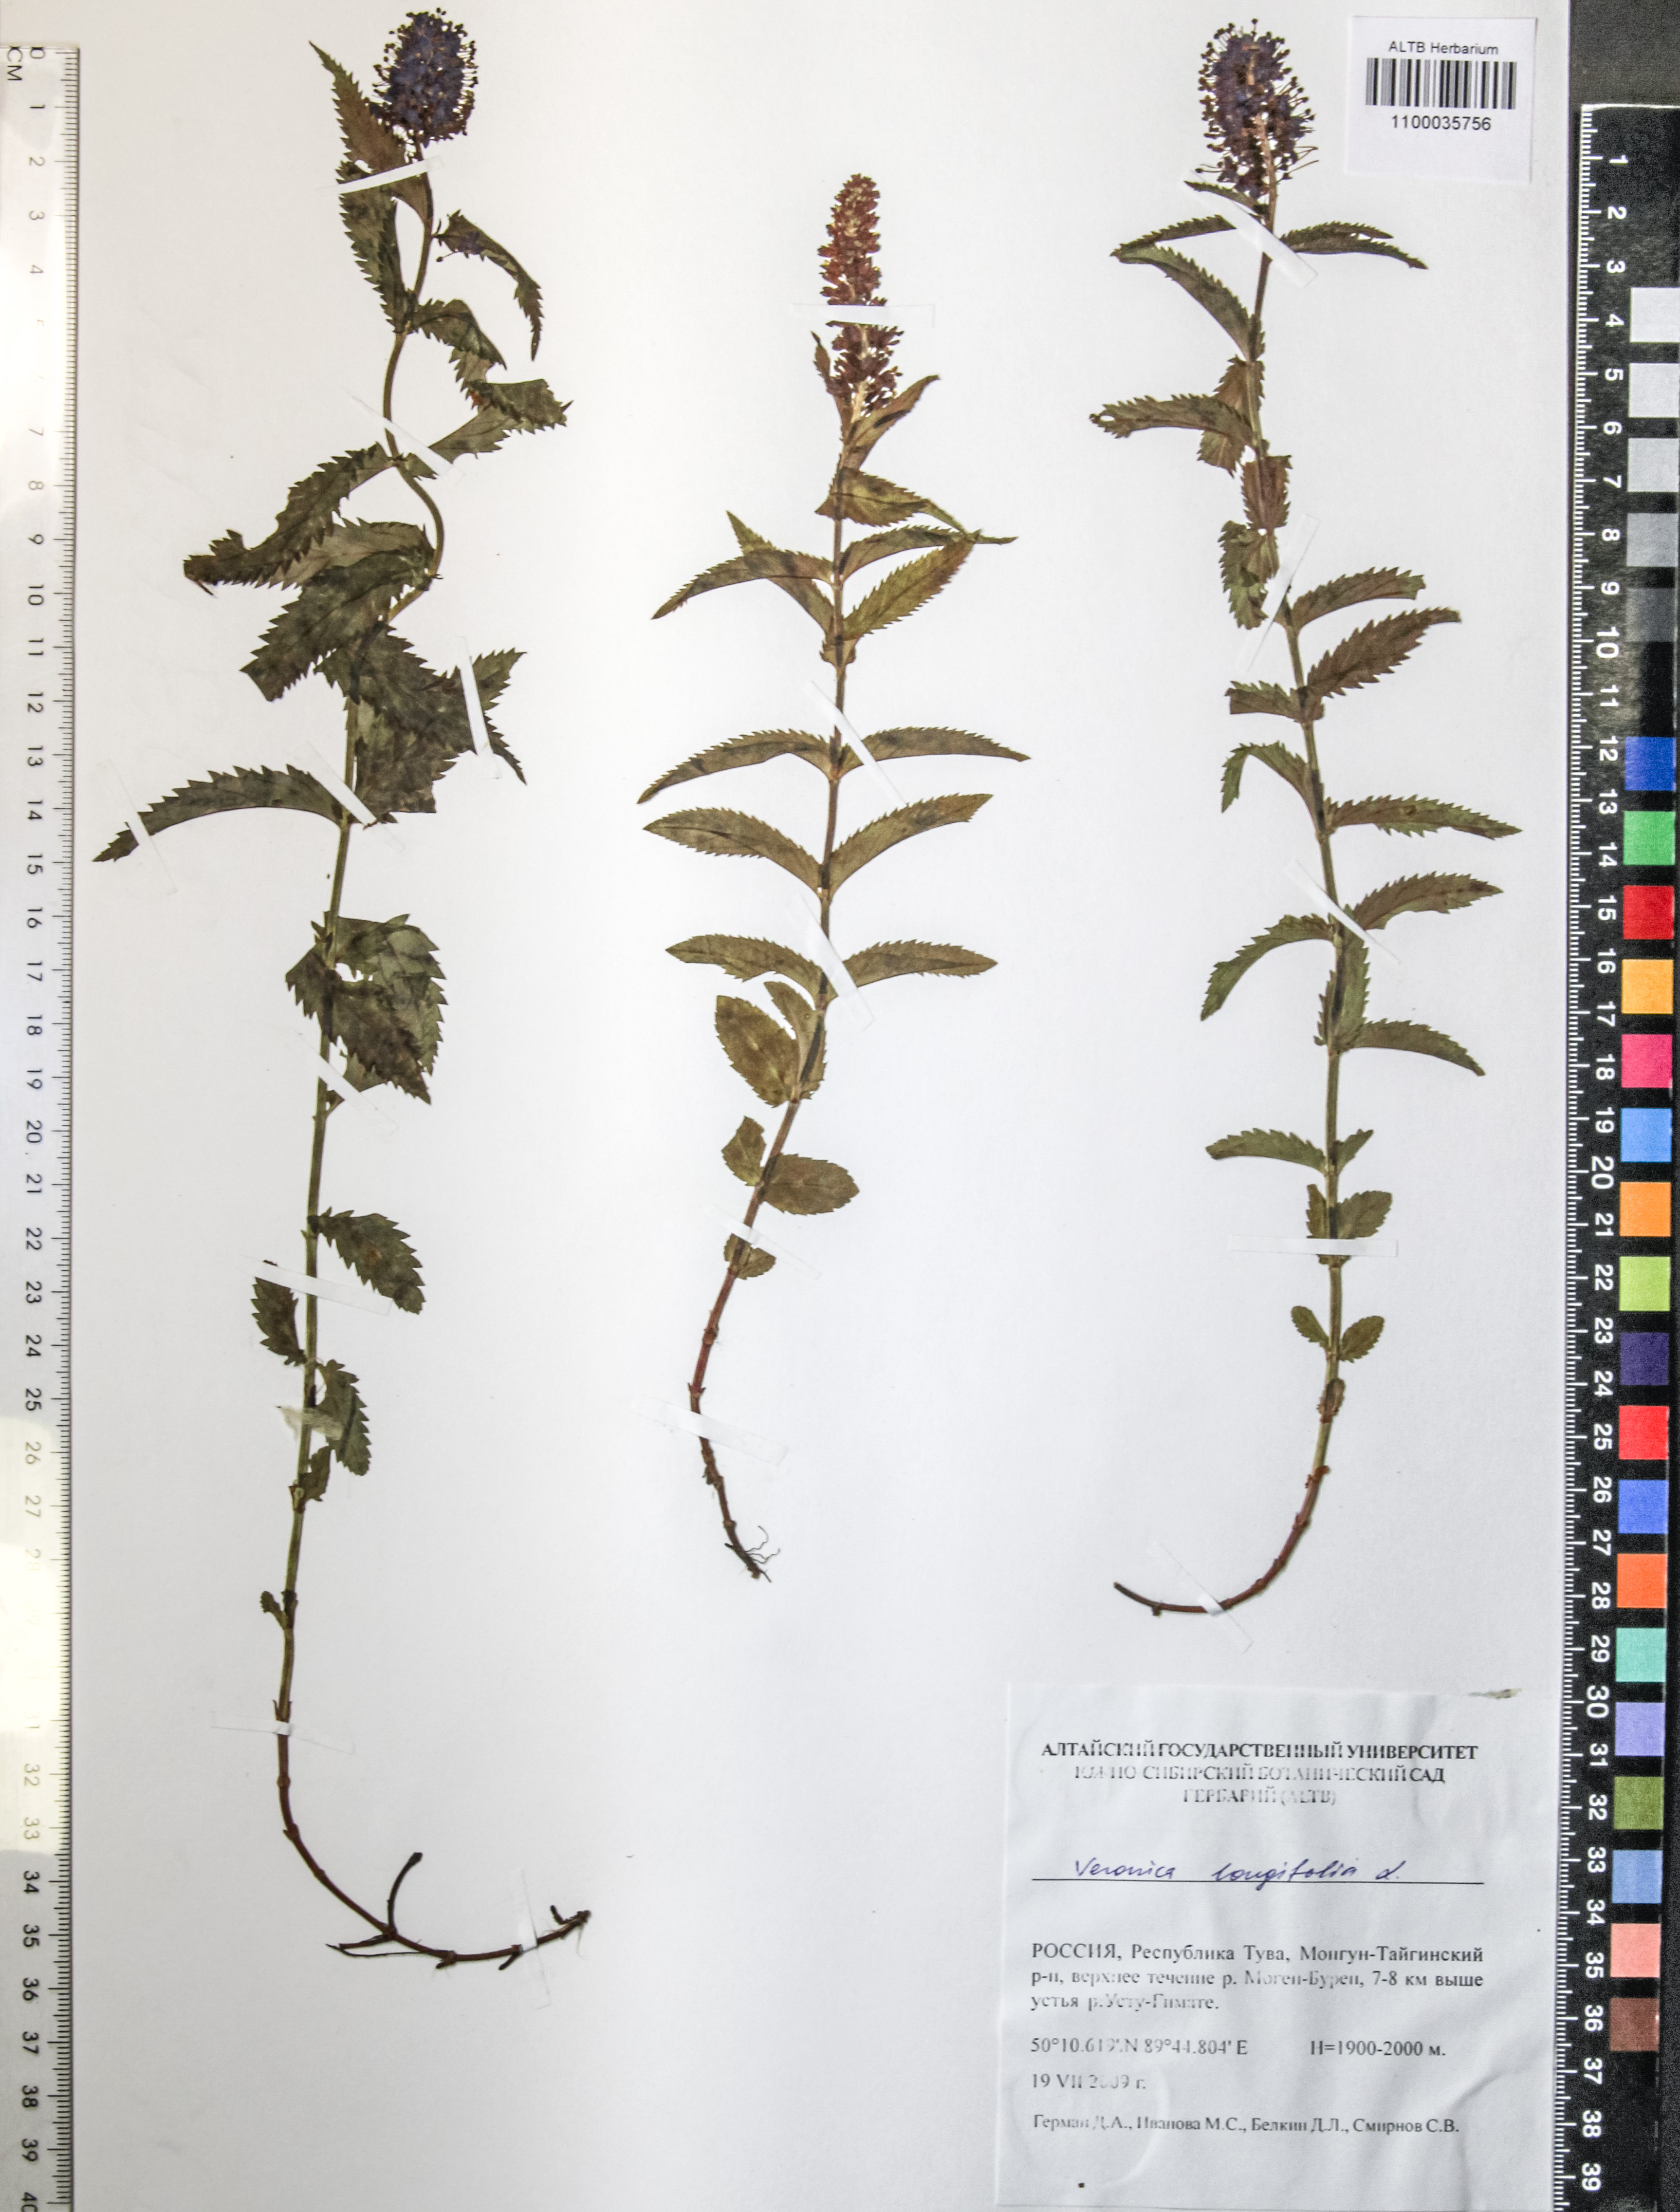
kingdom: Plantae
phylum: Tracheophyta
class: Magnoliopsida
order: Lamiales
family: Plantaginaceae
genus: Veronica
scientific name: Veronica longifolia
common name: Garden speedwell
